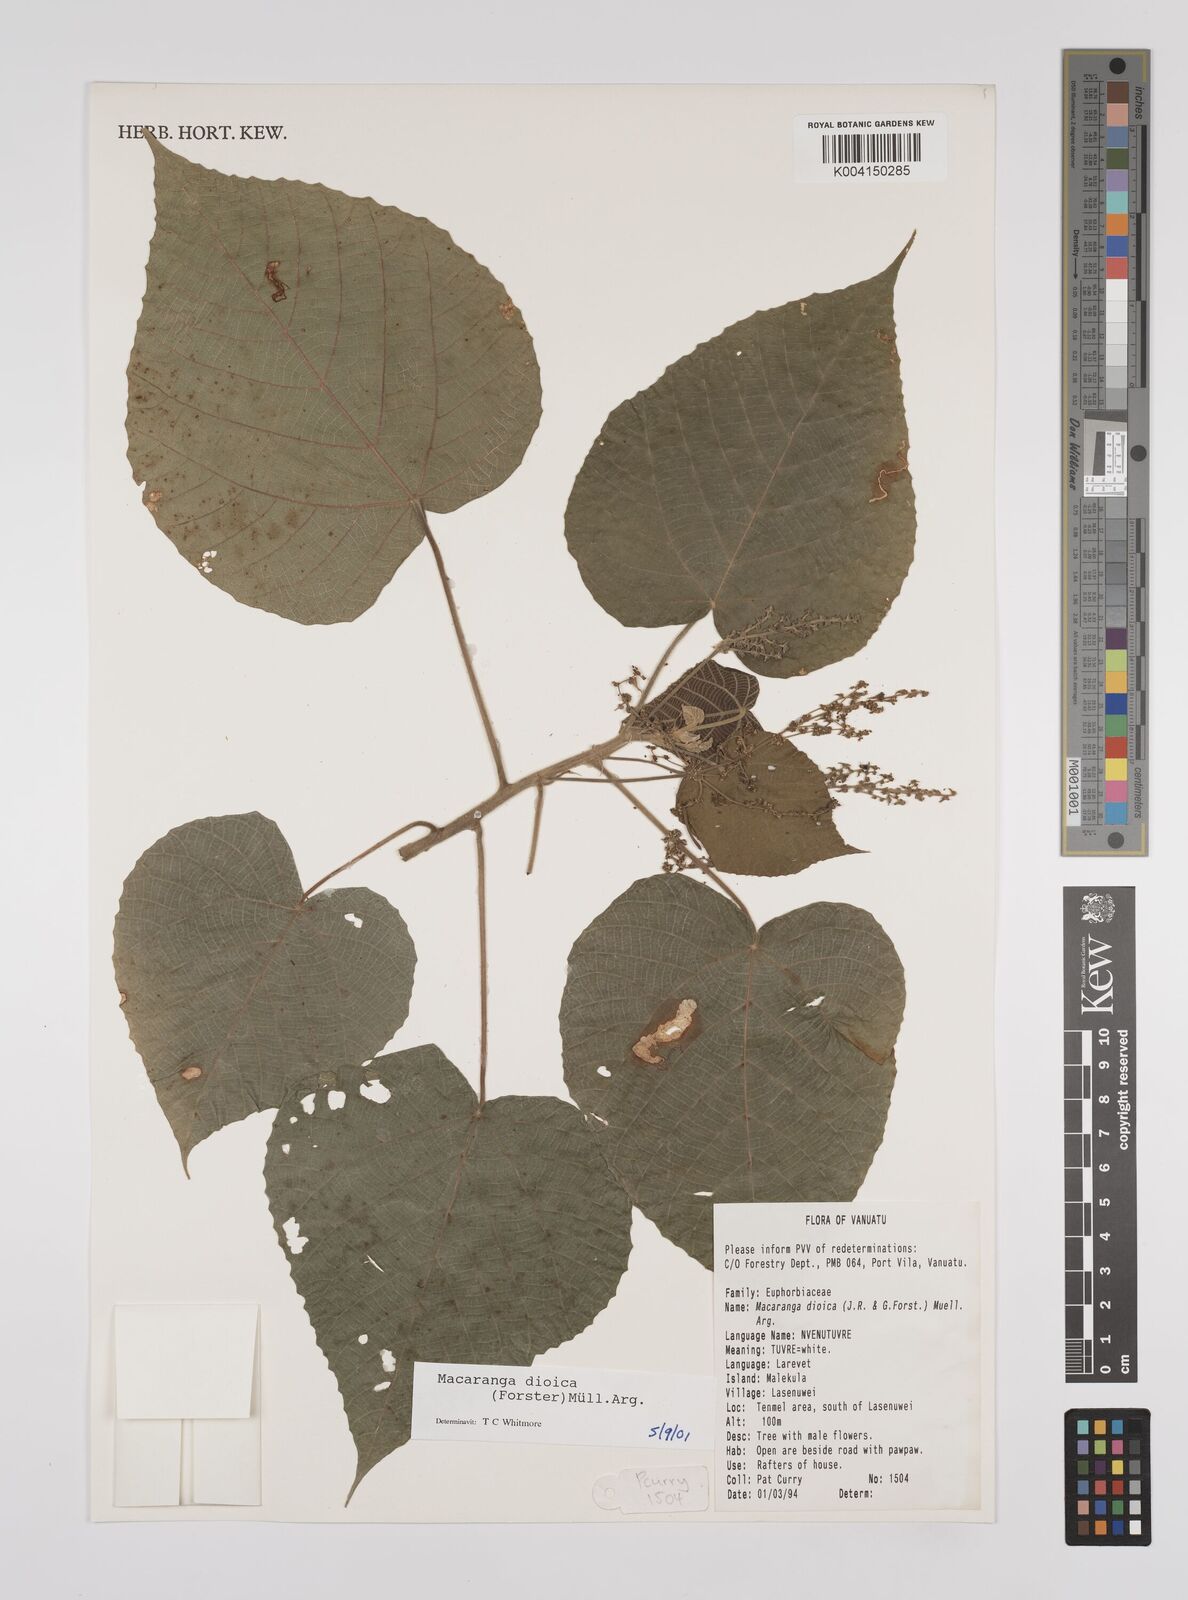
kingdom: Plantae
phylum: Tracheophyta
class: Magnoliopsida
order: Malpighiales
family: Euphorbiaceae
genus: Macaranga
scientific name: Macaranga dioica
